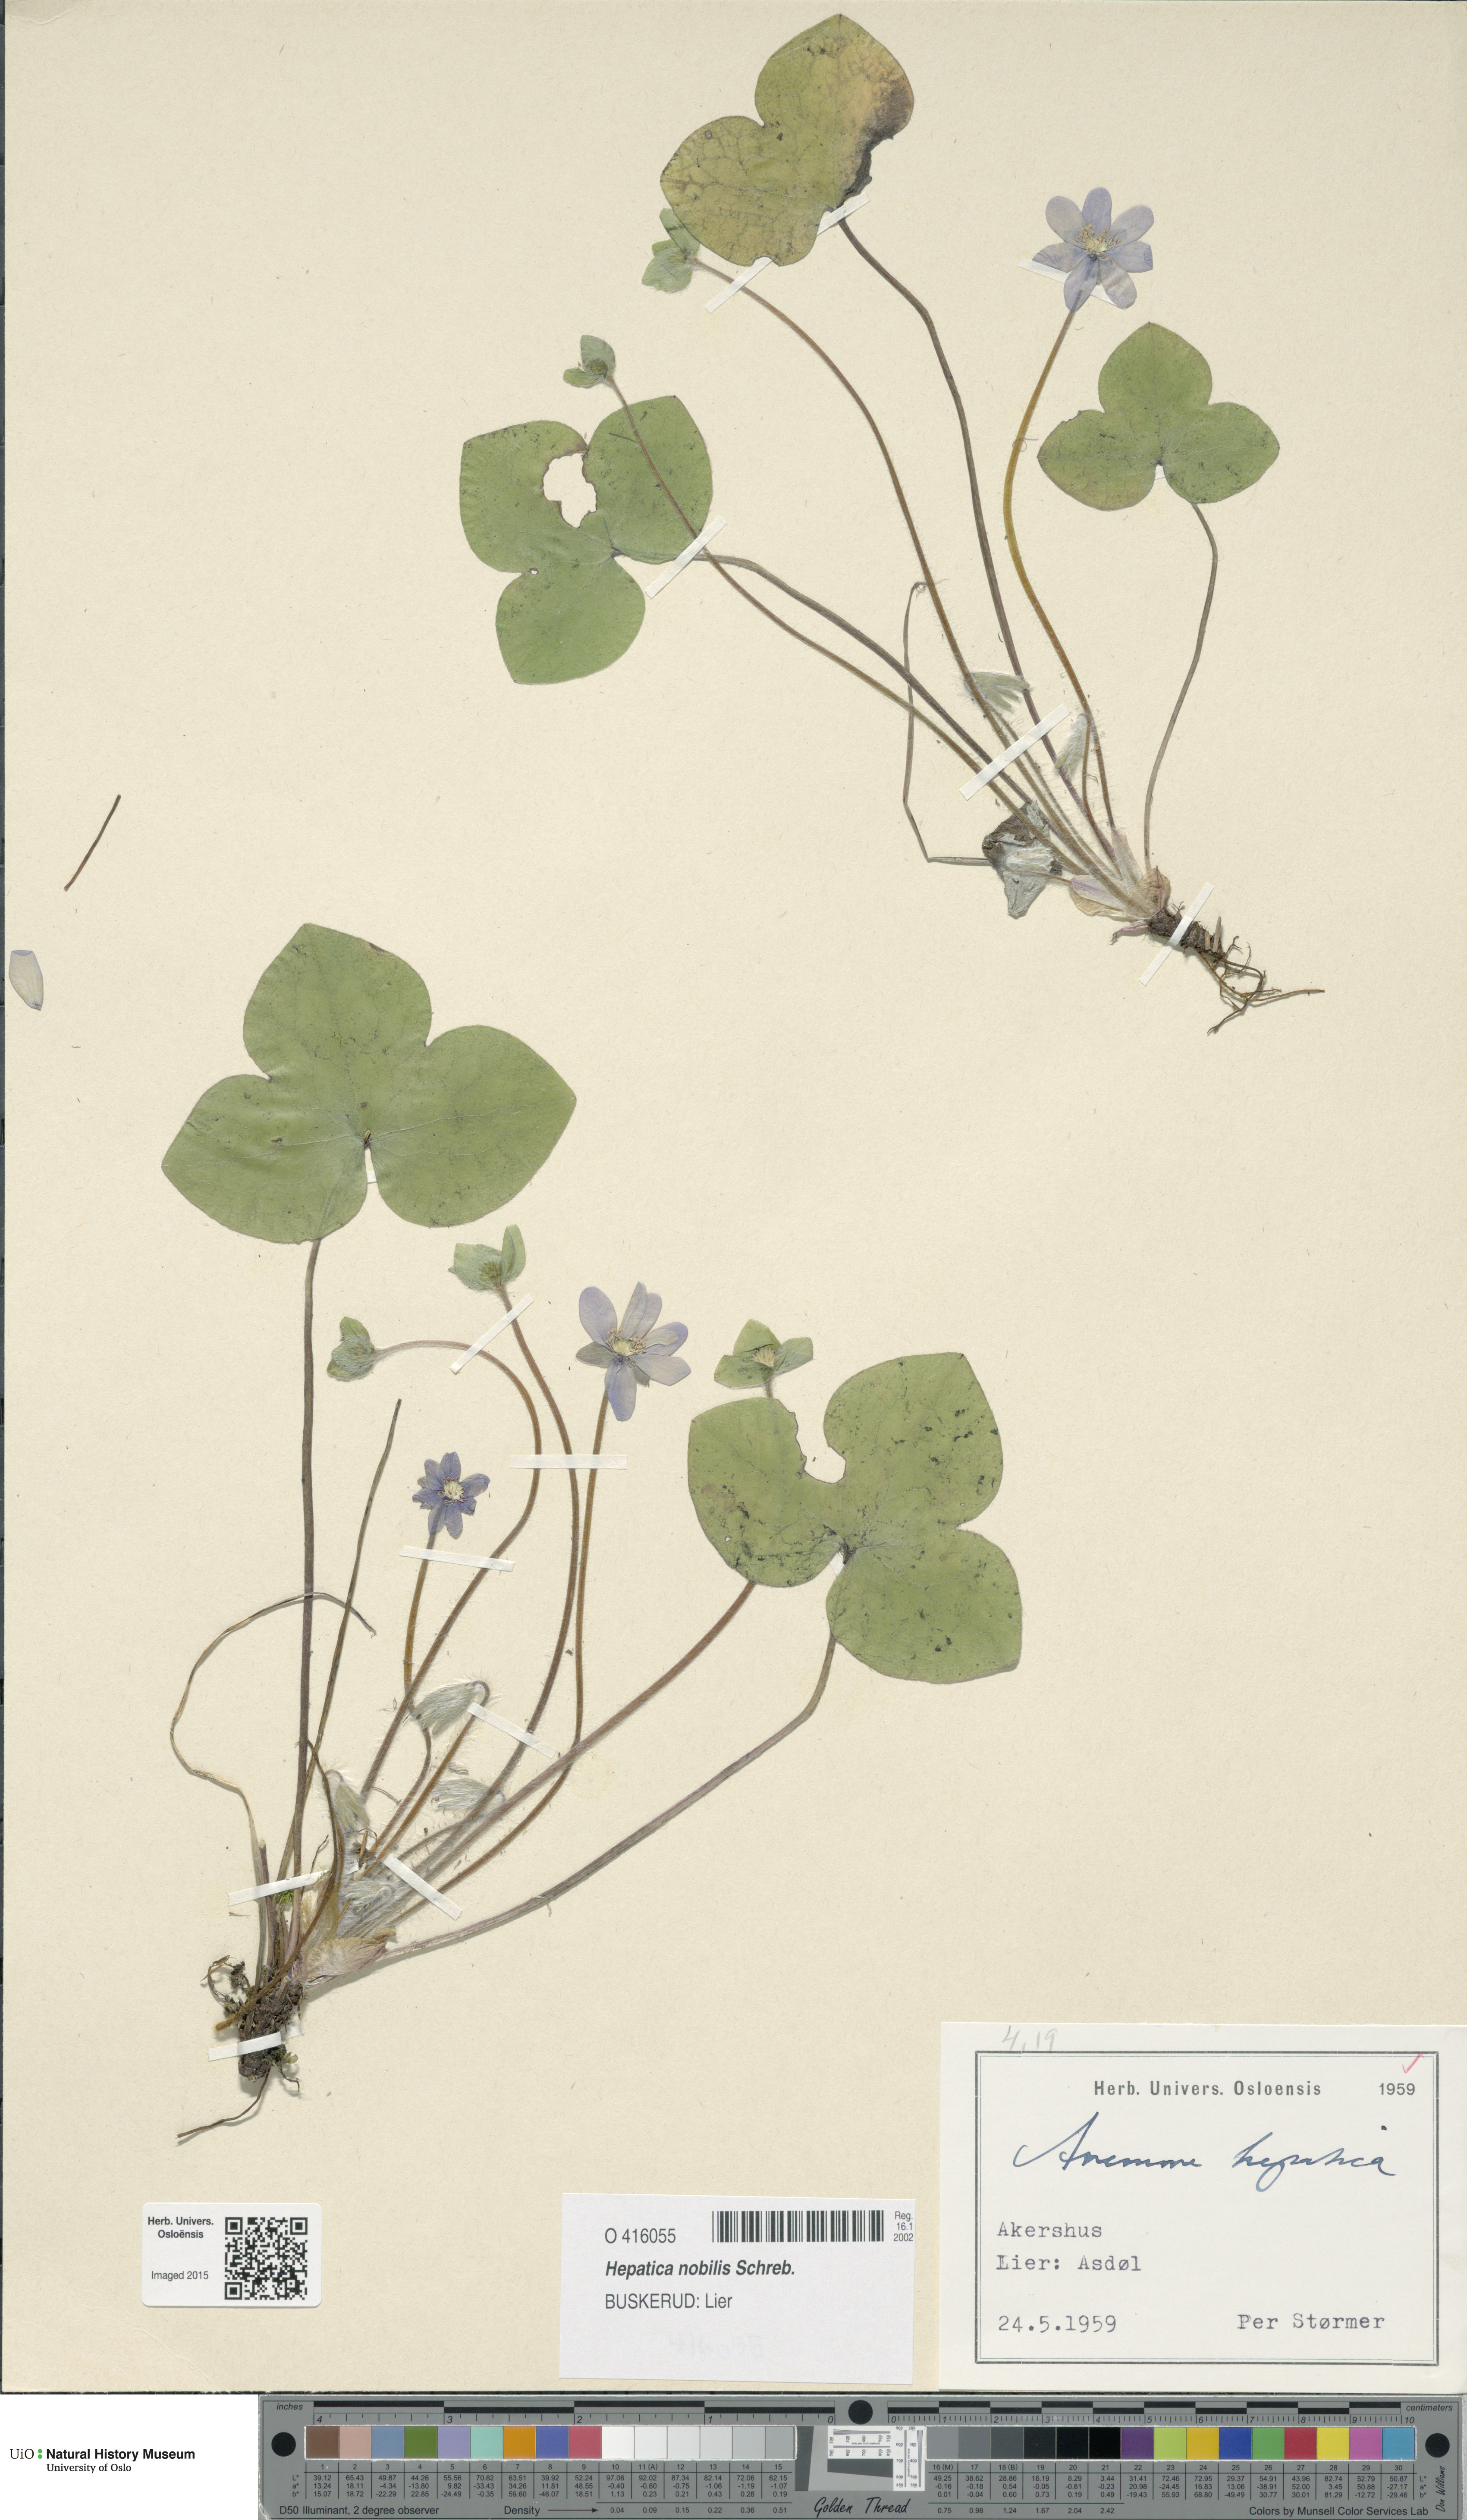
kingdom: Plantae
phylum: Tracheophyta
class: Magnoliopsida
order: Ranunculales
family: Ranunculaceae
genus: Hepatica
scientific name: Hepatica nobilis
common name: Liverleaf
